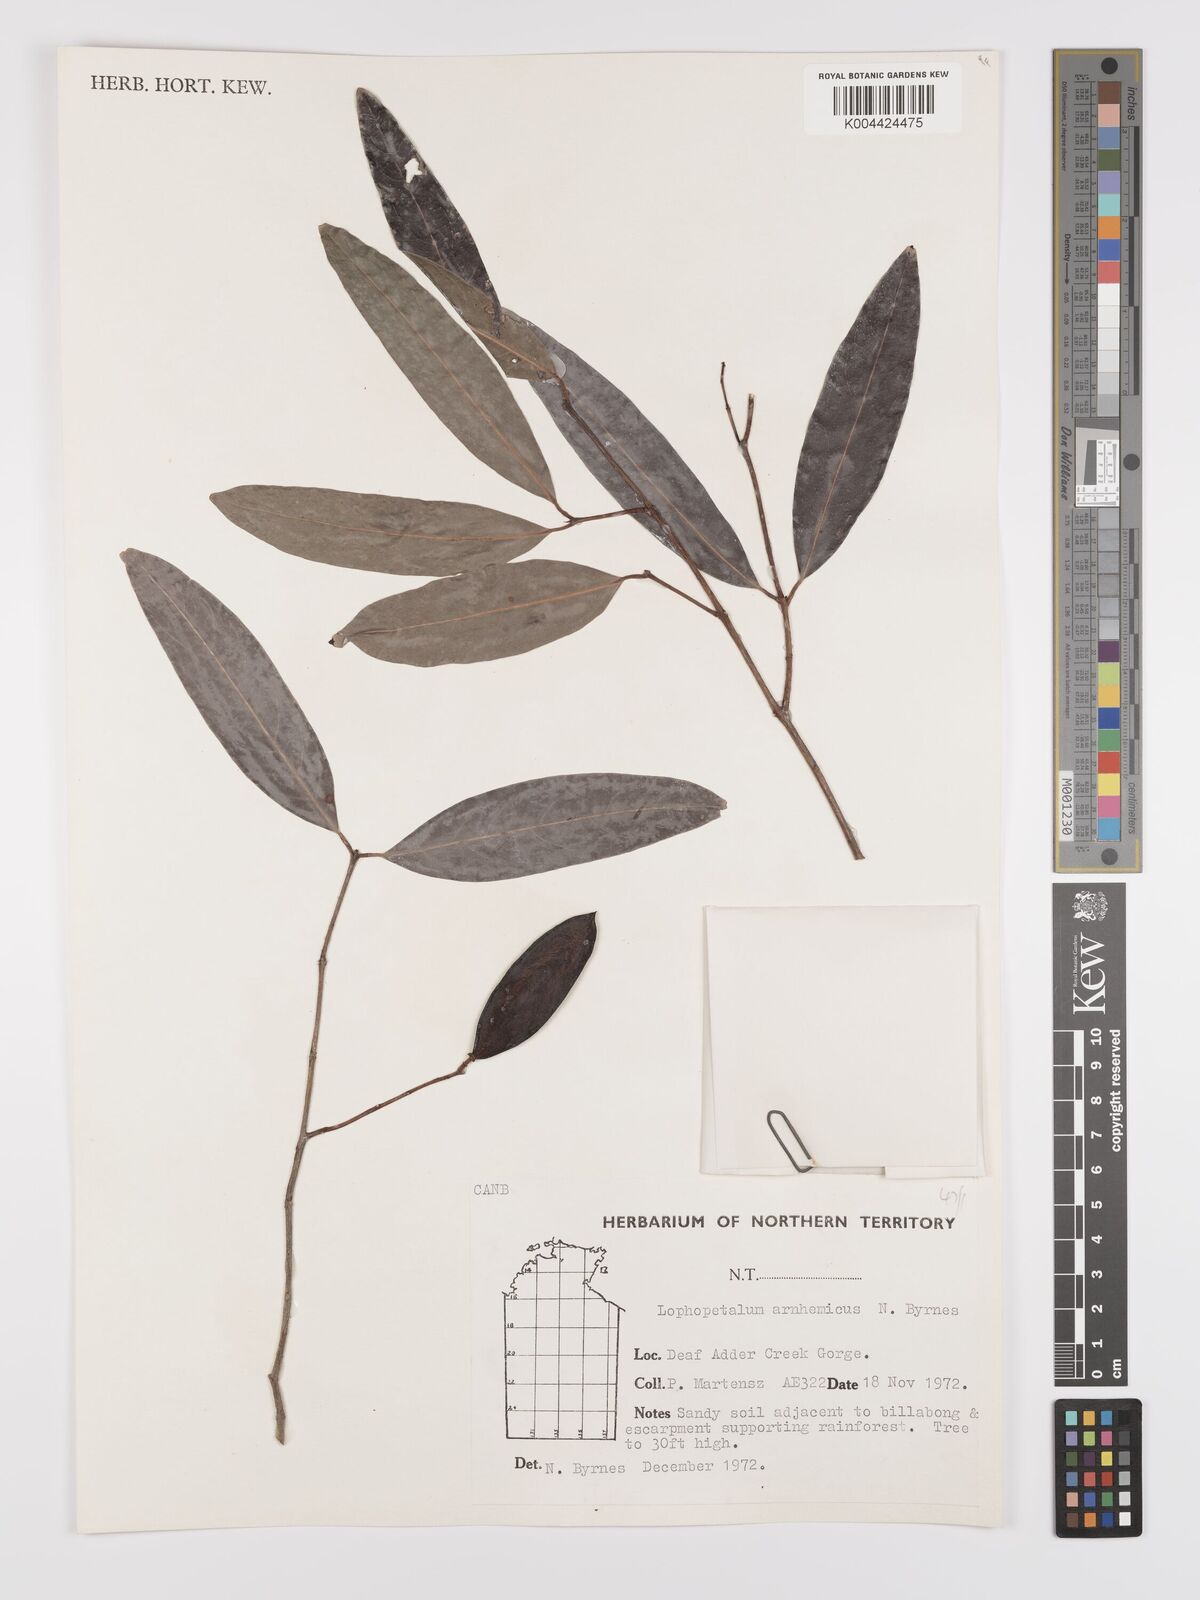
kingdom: Plantae
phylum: Tracheophyta
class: Magnoliopsida
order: Celastrales
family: Celastraceae
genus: Lophopetalum
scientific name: Lophopetalum arnhemicum
